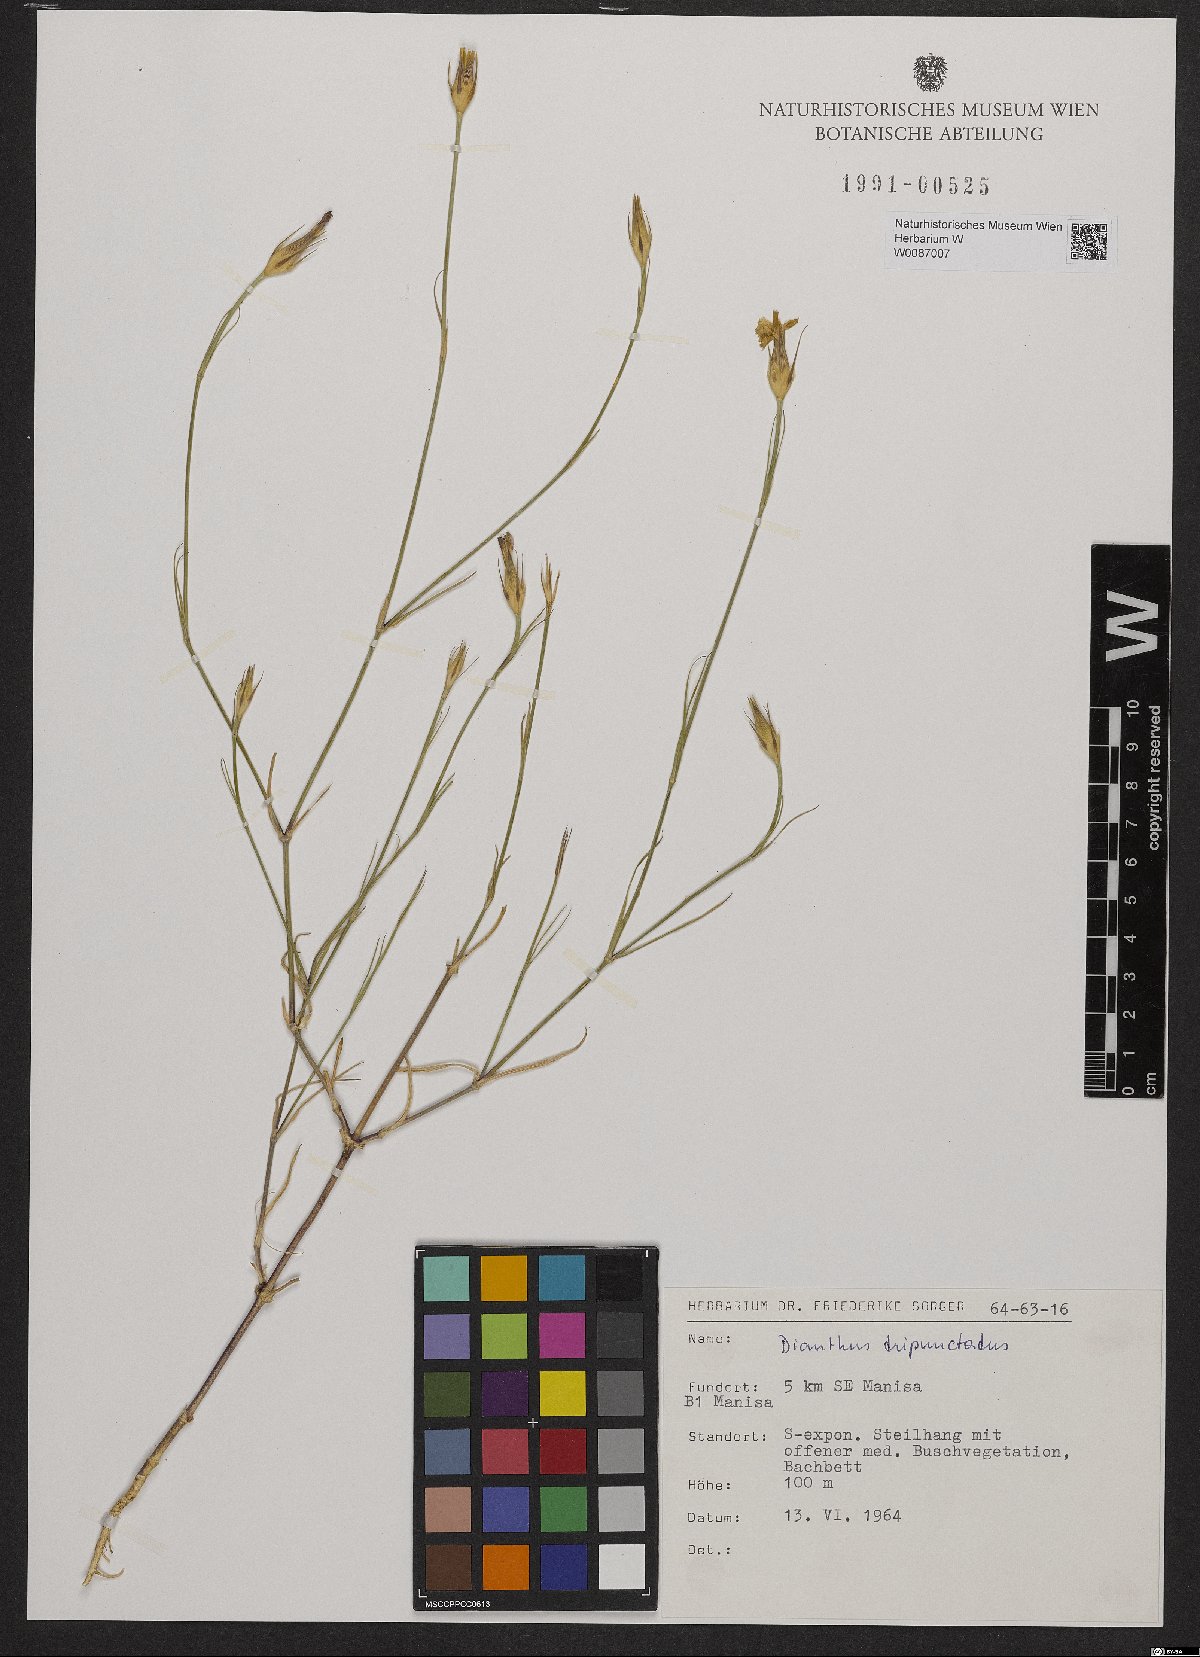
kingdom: Plantae
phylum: Tracheophyta
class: Magnoliopsida
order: Caryophyllales
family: Caryophyllaceae
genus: Dianthus
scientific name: Dianthus tripunctatus
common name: Three-spotted pink
